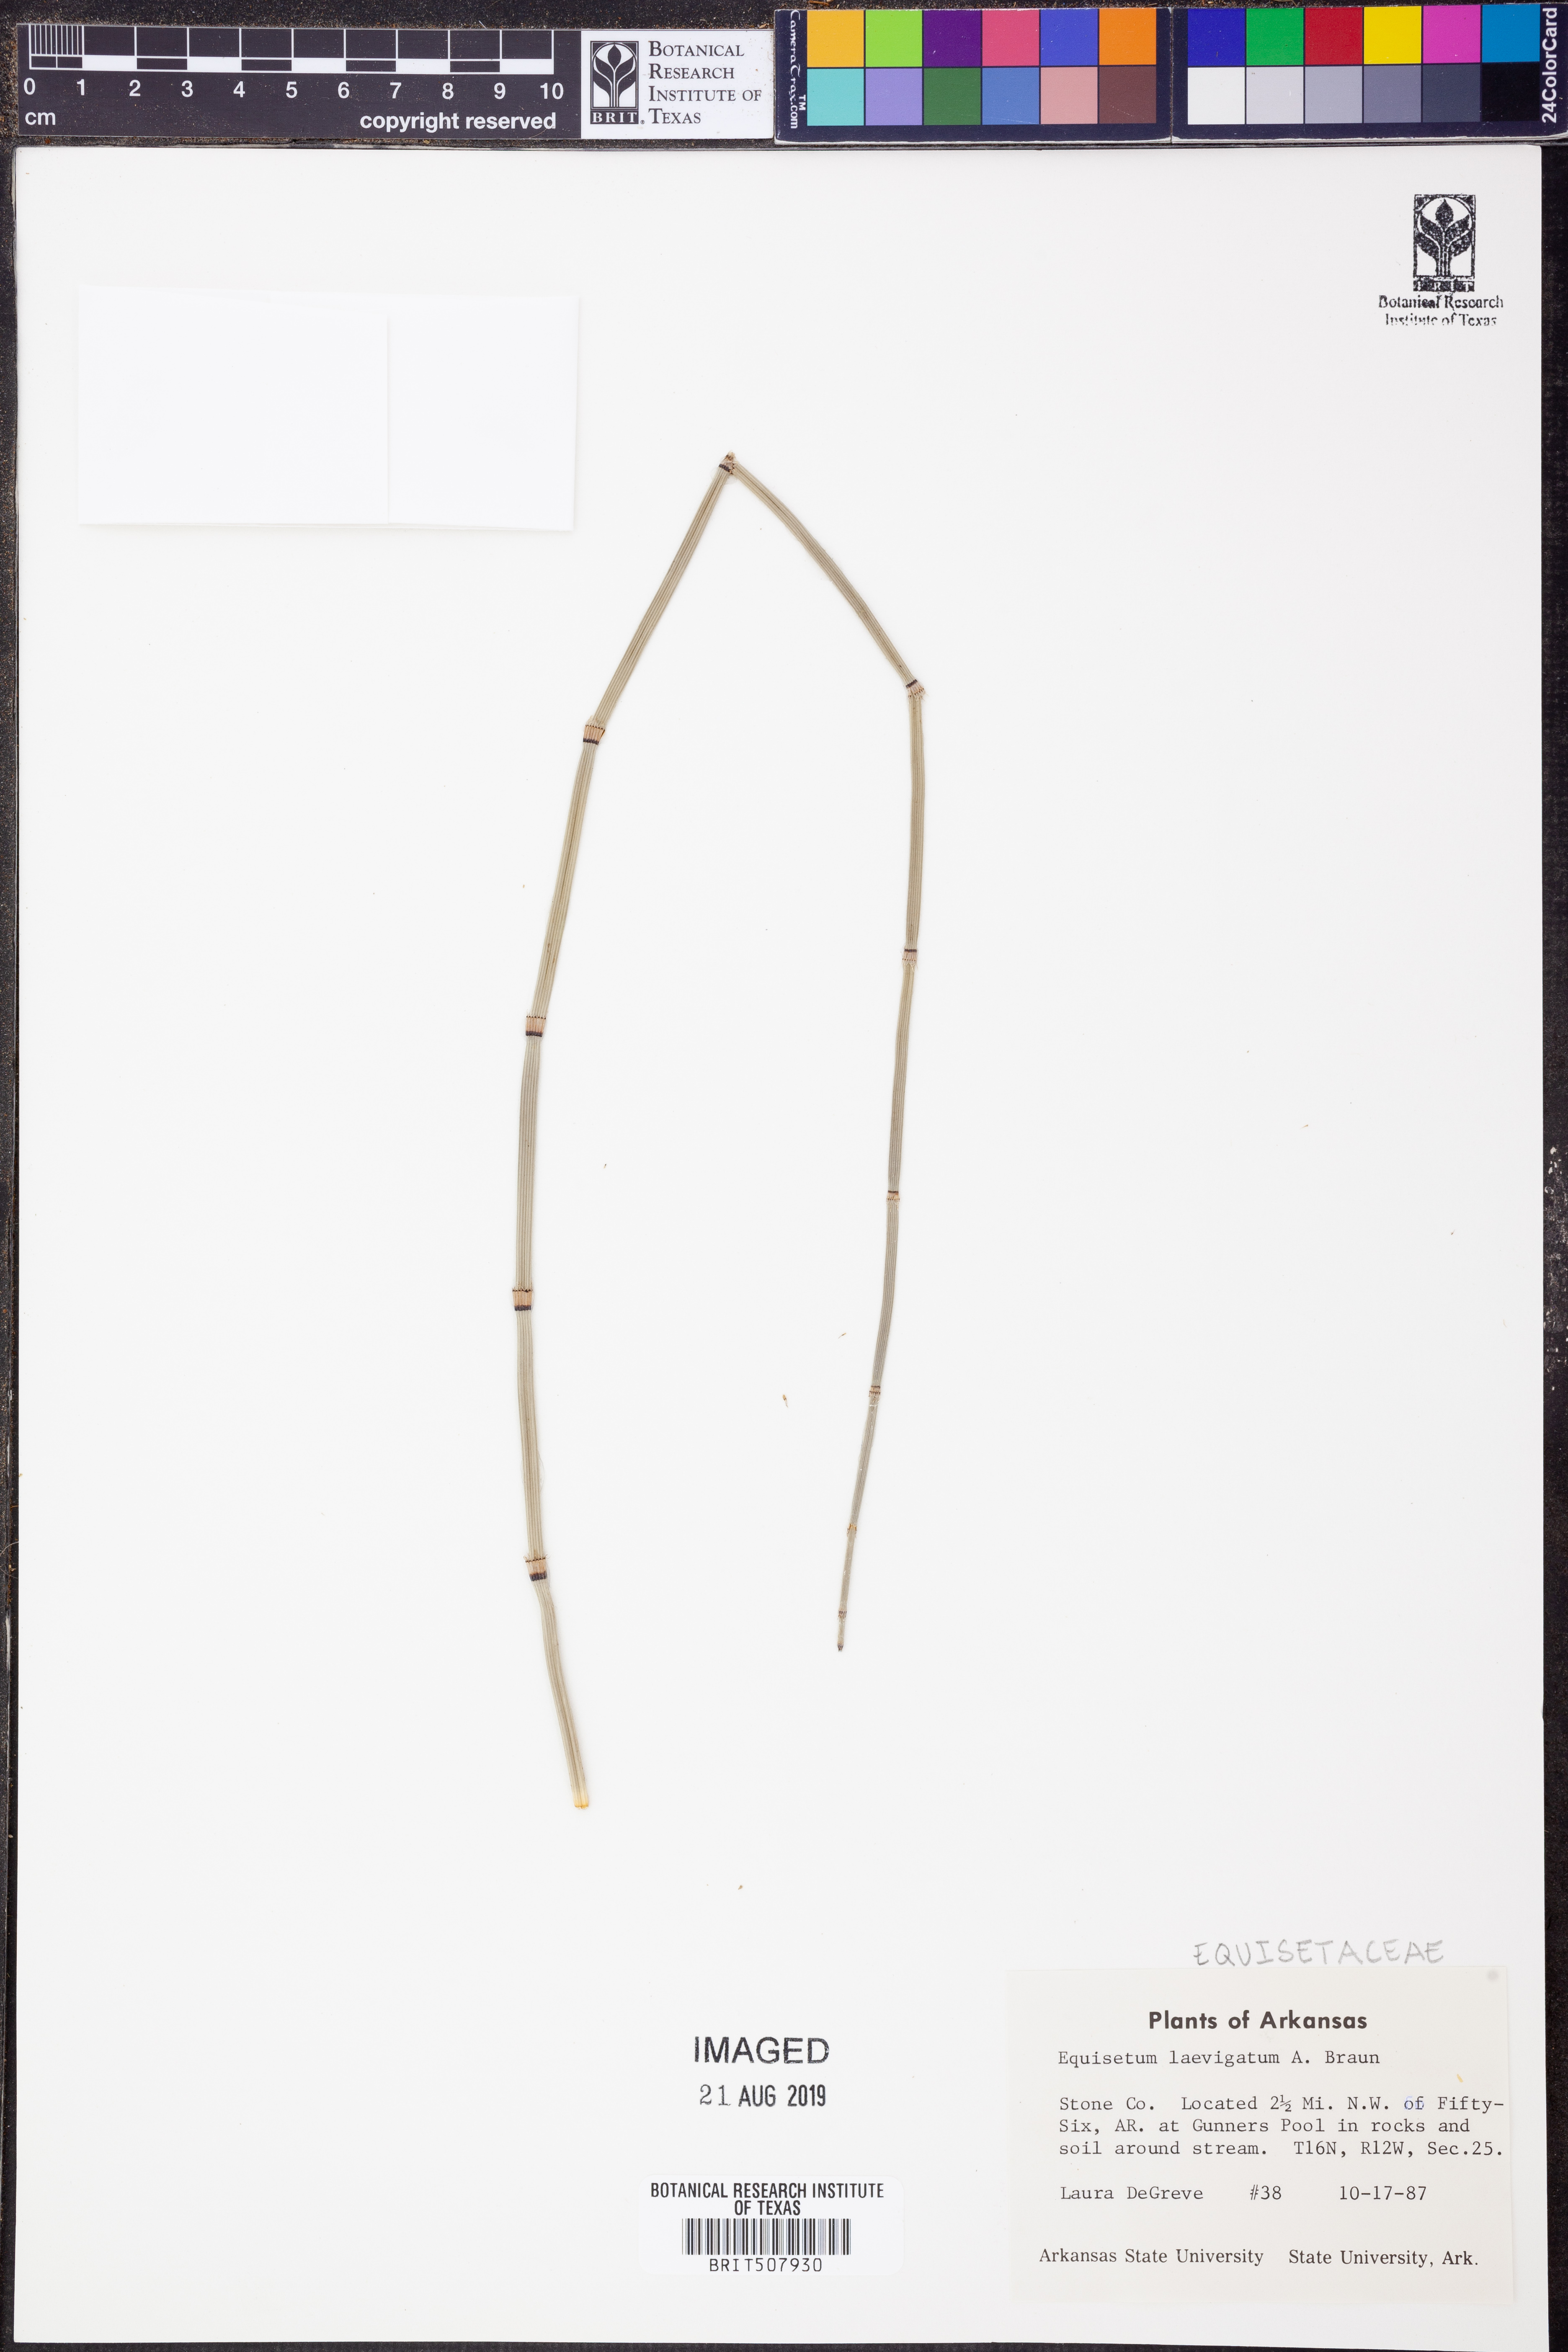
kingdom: Plantae
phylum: Tracheophyta
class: Polypodiopsida
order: Equisetales
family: Equisetaceae
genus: Equisetum
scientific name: Equisetum laevigatum
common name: Smooth scouring-rush
